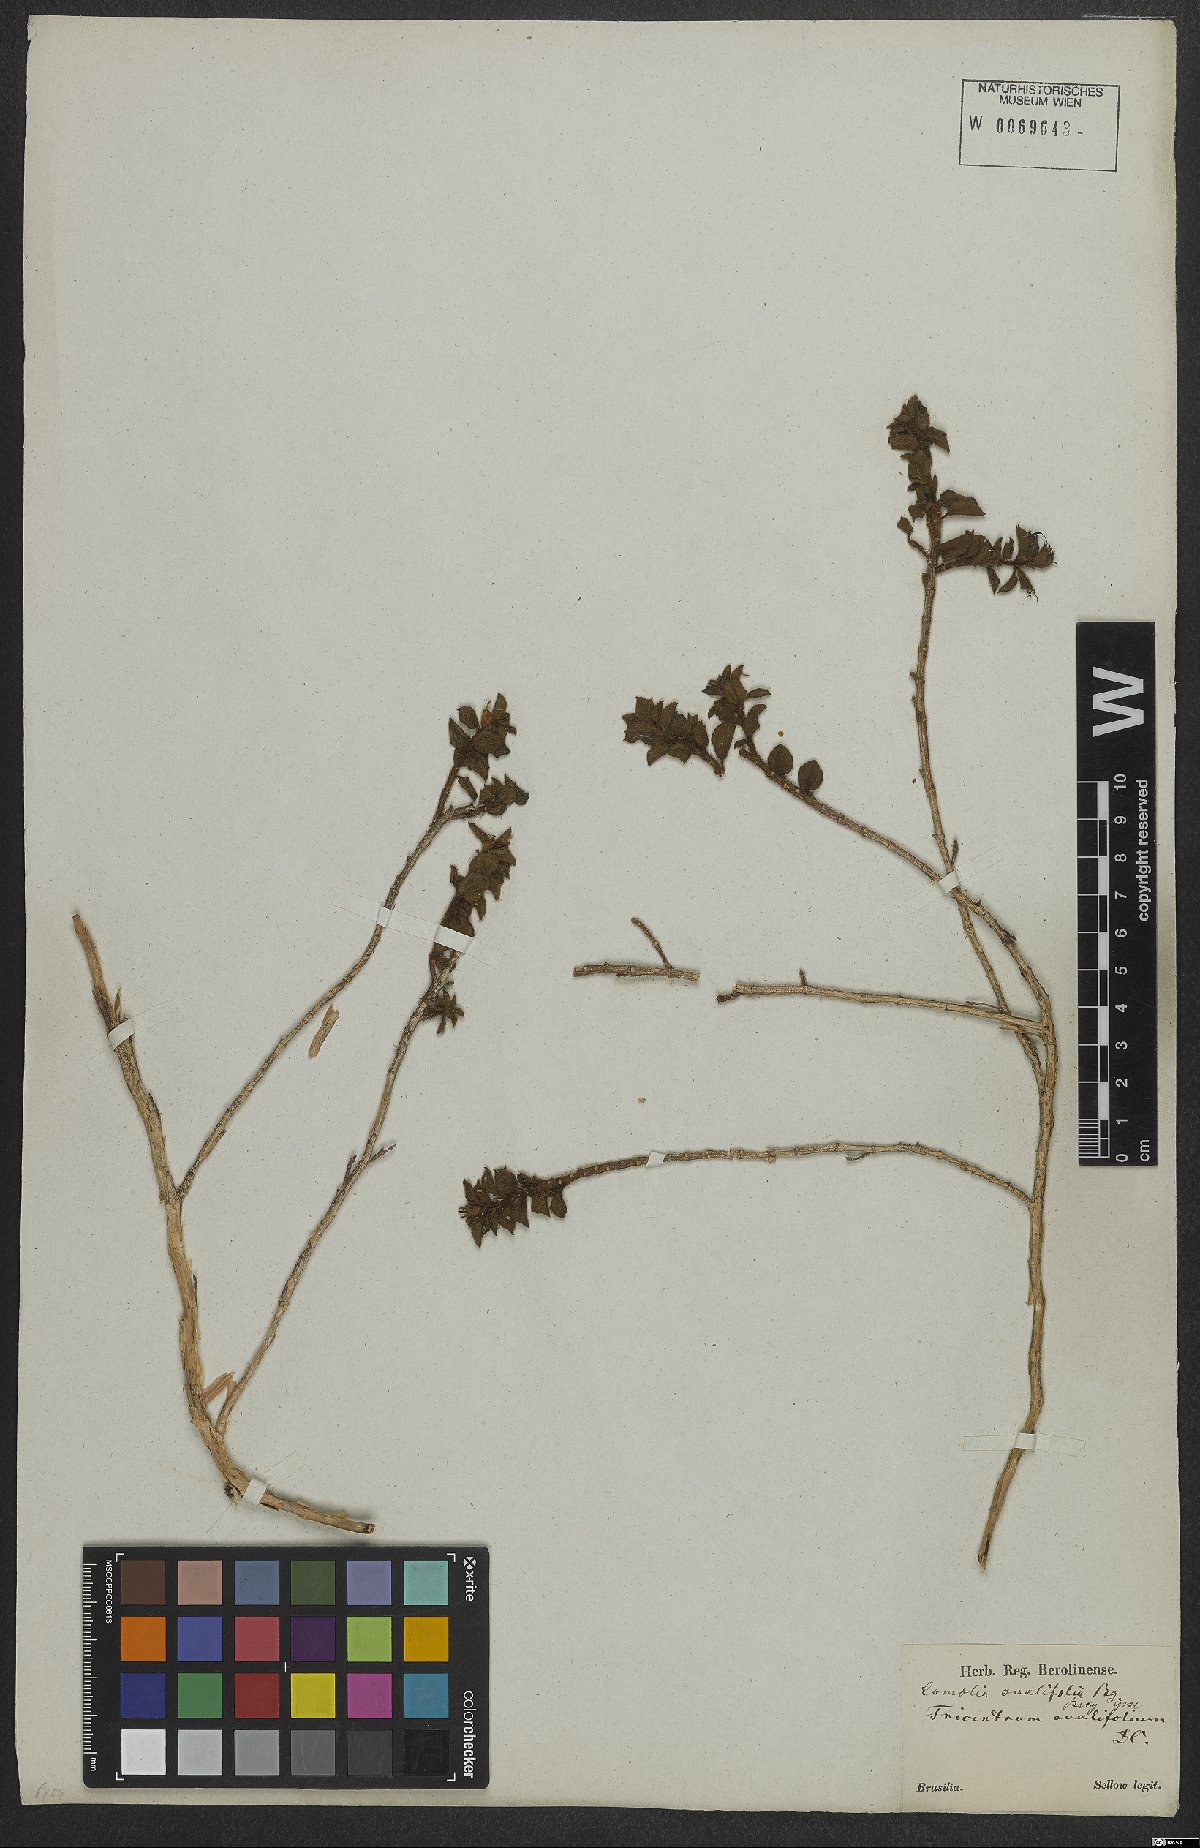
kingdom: Plantae
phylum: Tracheophyta
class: Magnoliopsida
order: Myrtales
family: Melastomataceae
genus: Comolia
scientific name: Comolia ovalifolia
